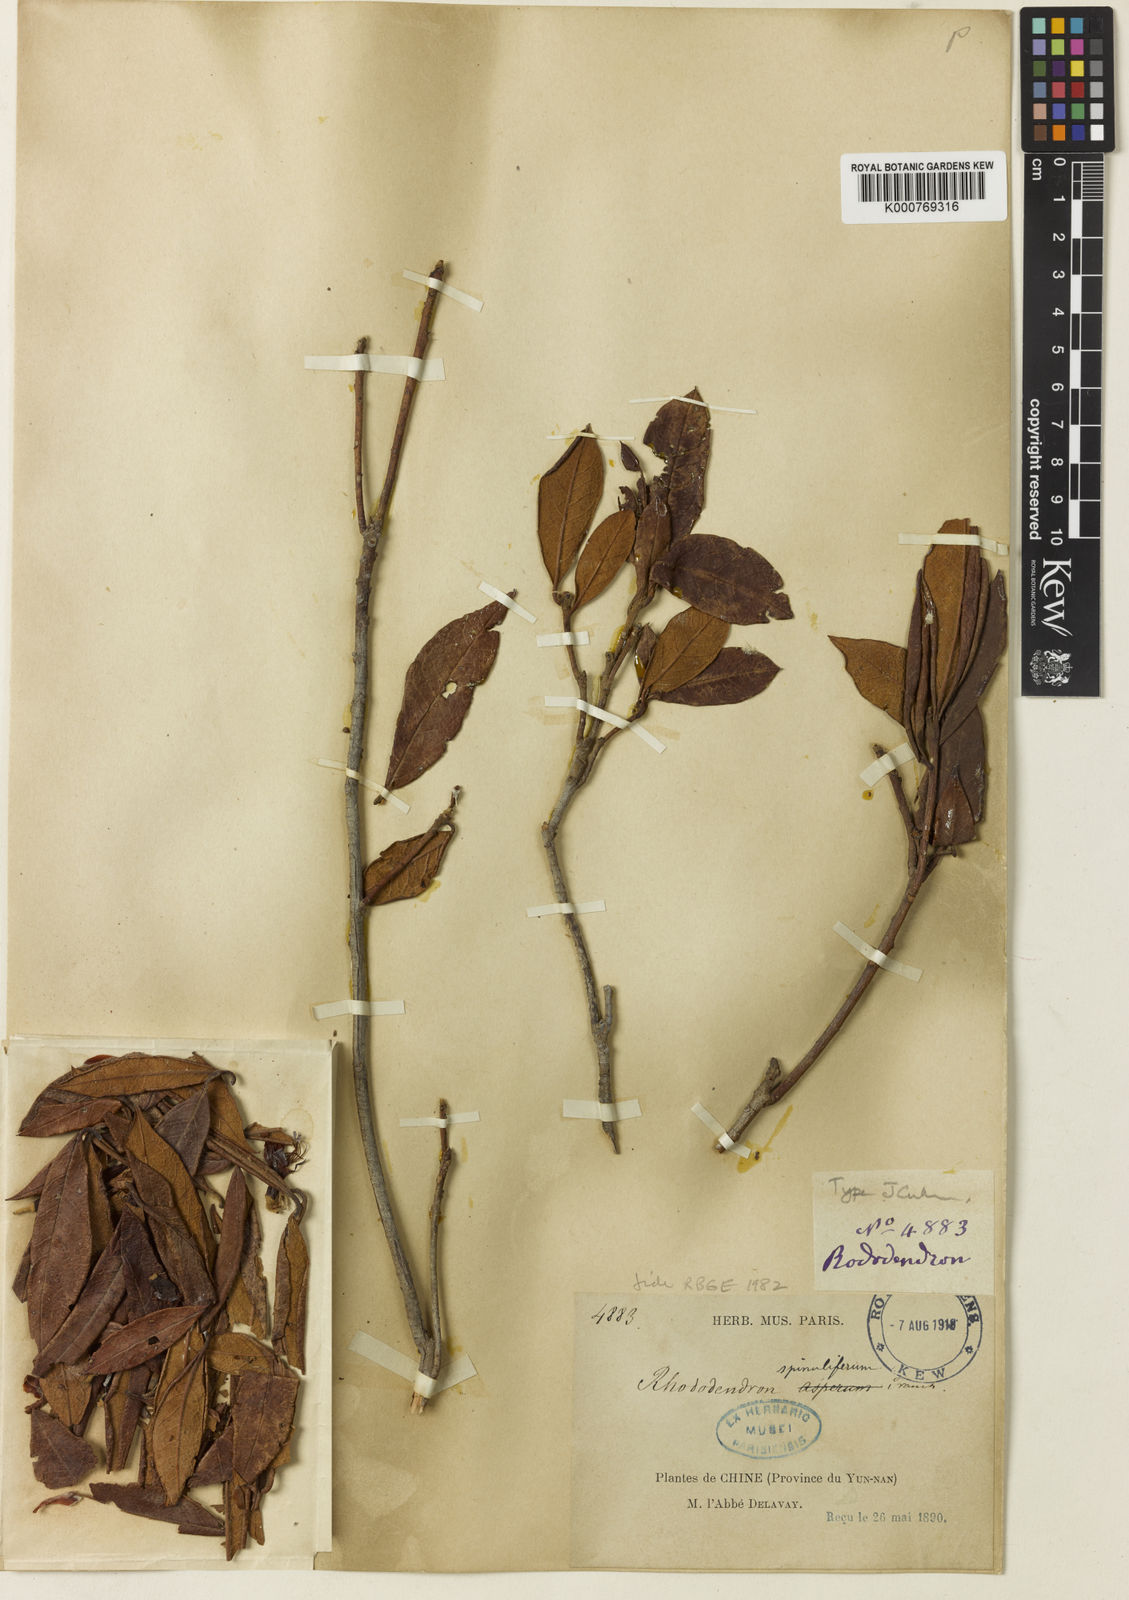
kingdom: Plantae
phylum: Tracheophyta
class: Magnoliopsida
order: Ericales
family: Ericaceae
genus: Rhododendron
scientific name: Rhododendron spinuliferum
